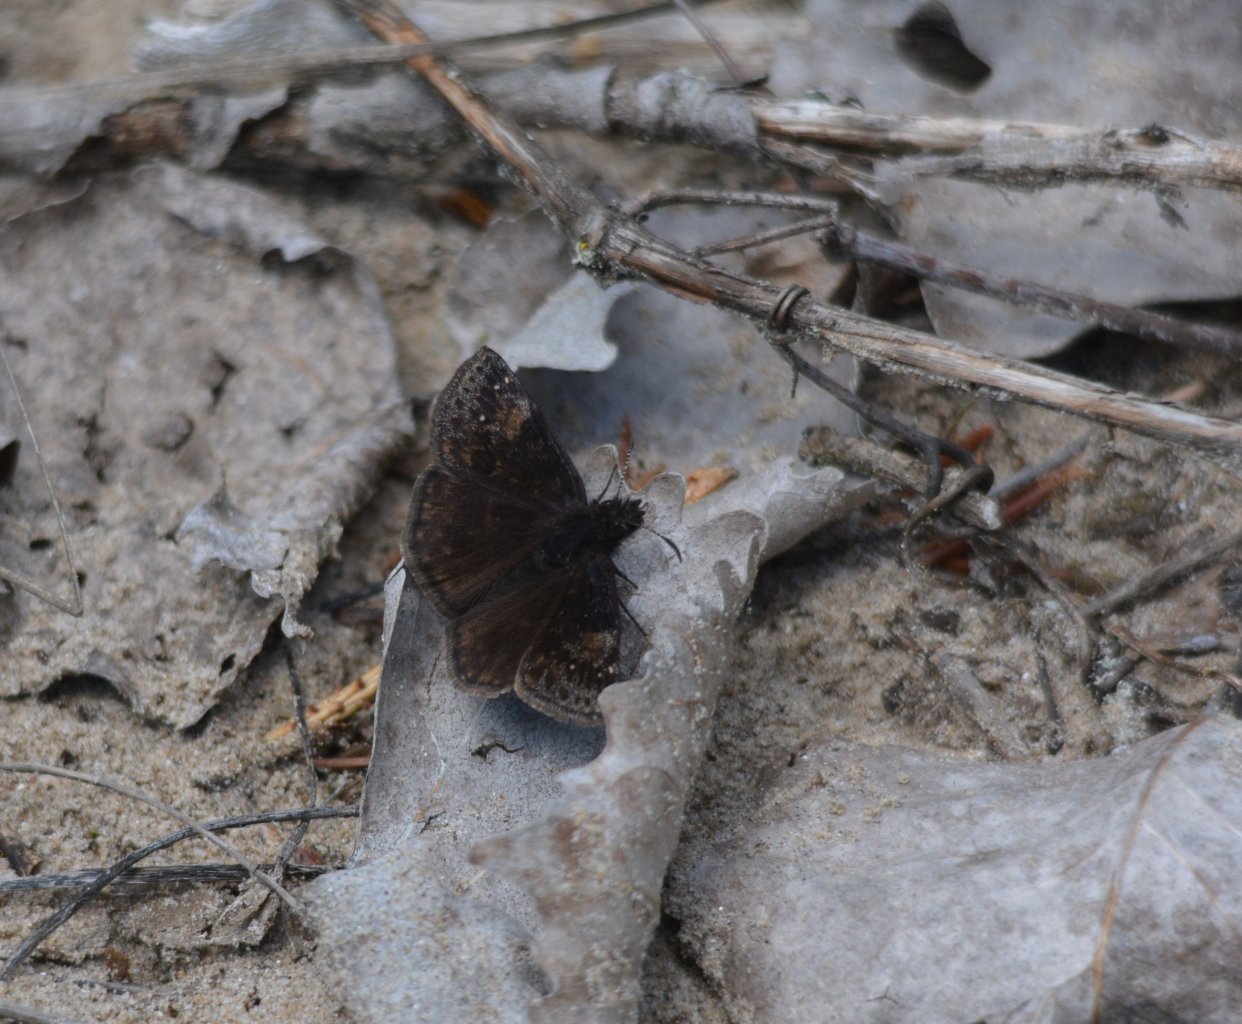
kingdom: Animalia
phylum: Arthropoda
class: Insecta
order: Lepidoptera
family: Hesperiidae
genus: Gesta
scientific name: Gesta
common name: Wild Indigo Duskywing
